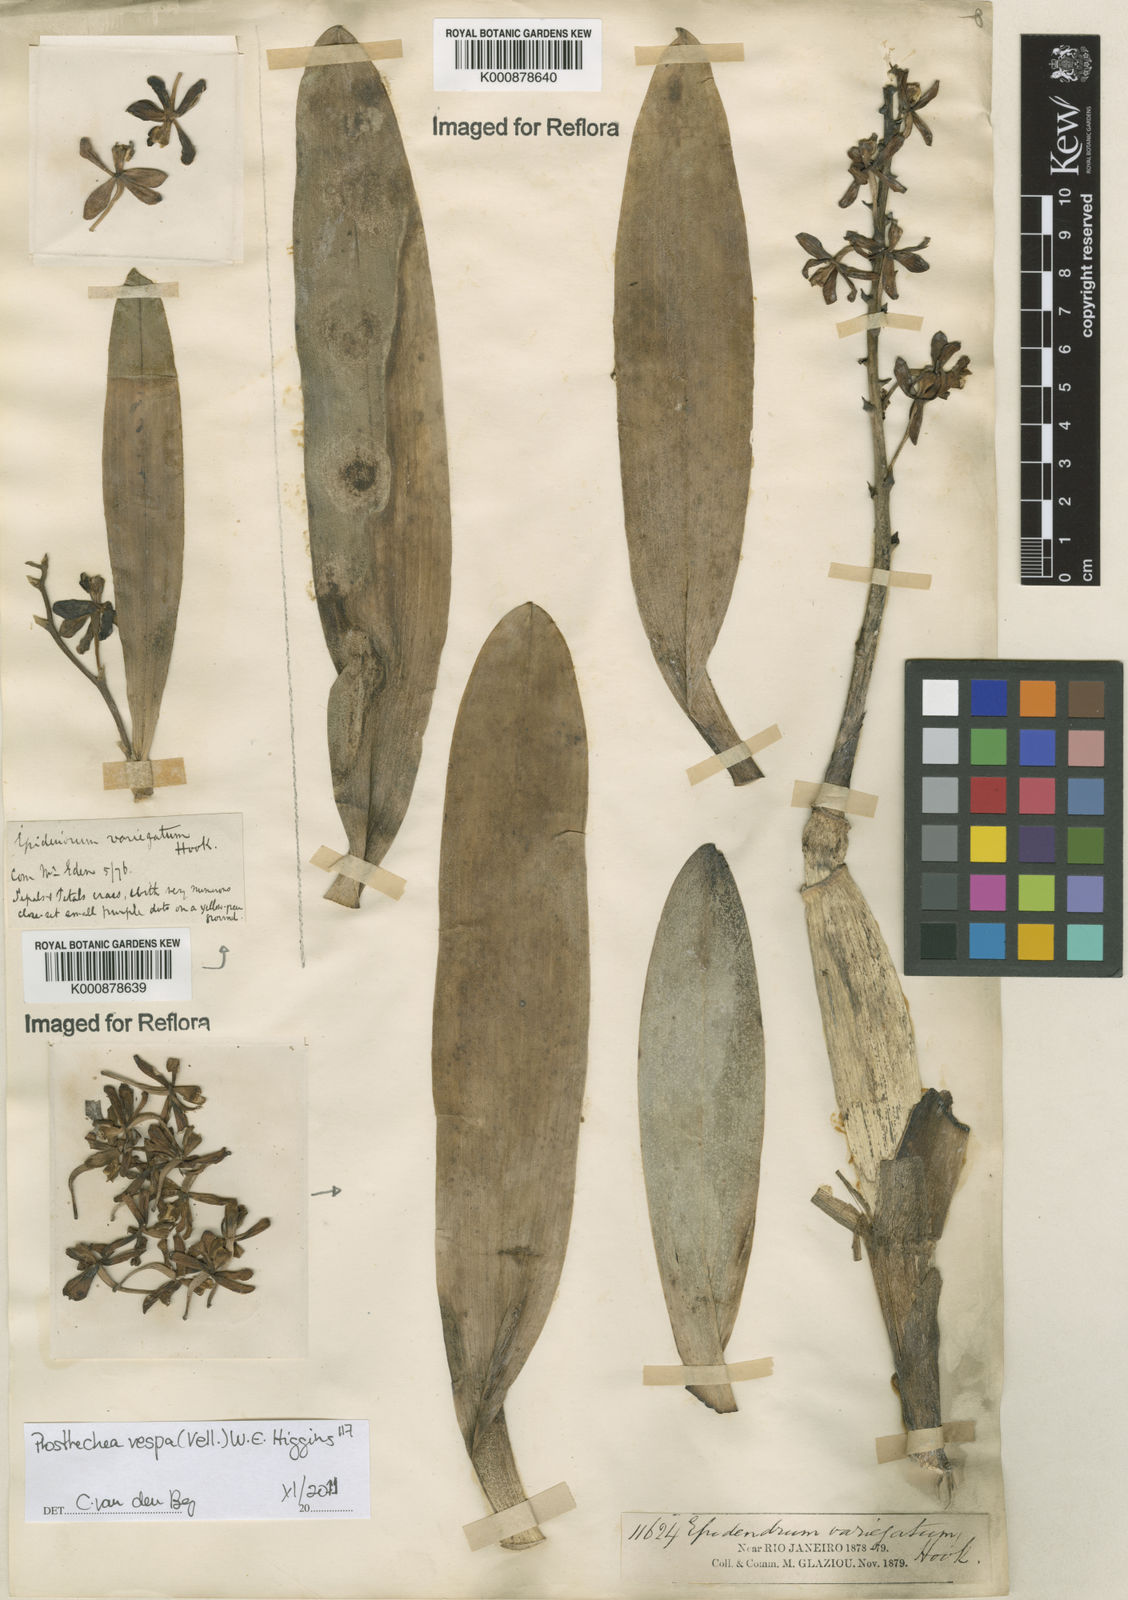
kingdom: Plantae
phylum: Tracheophyta
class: Liliopsida
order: Asparagales
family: Orchidaceae
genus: Prosthechea
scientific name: Prosthechea vespa
